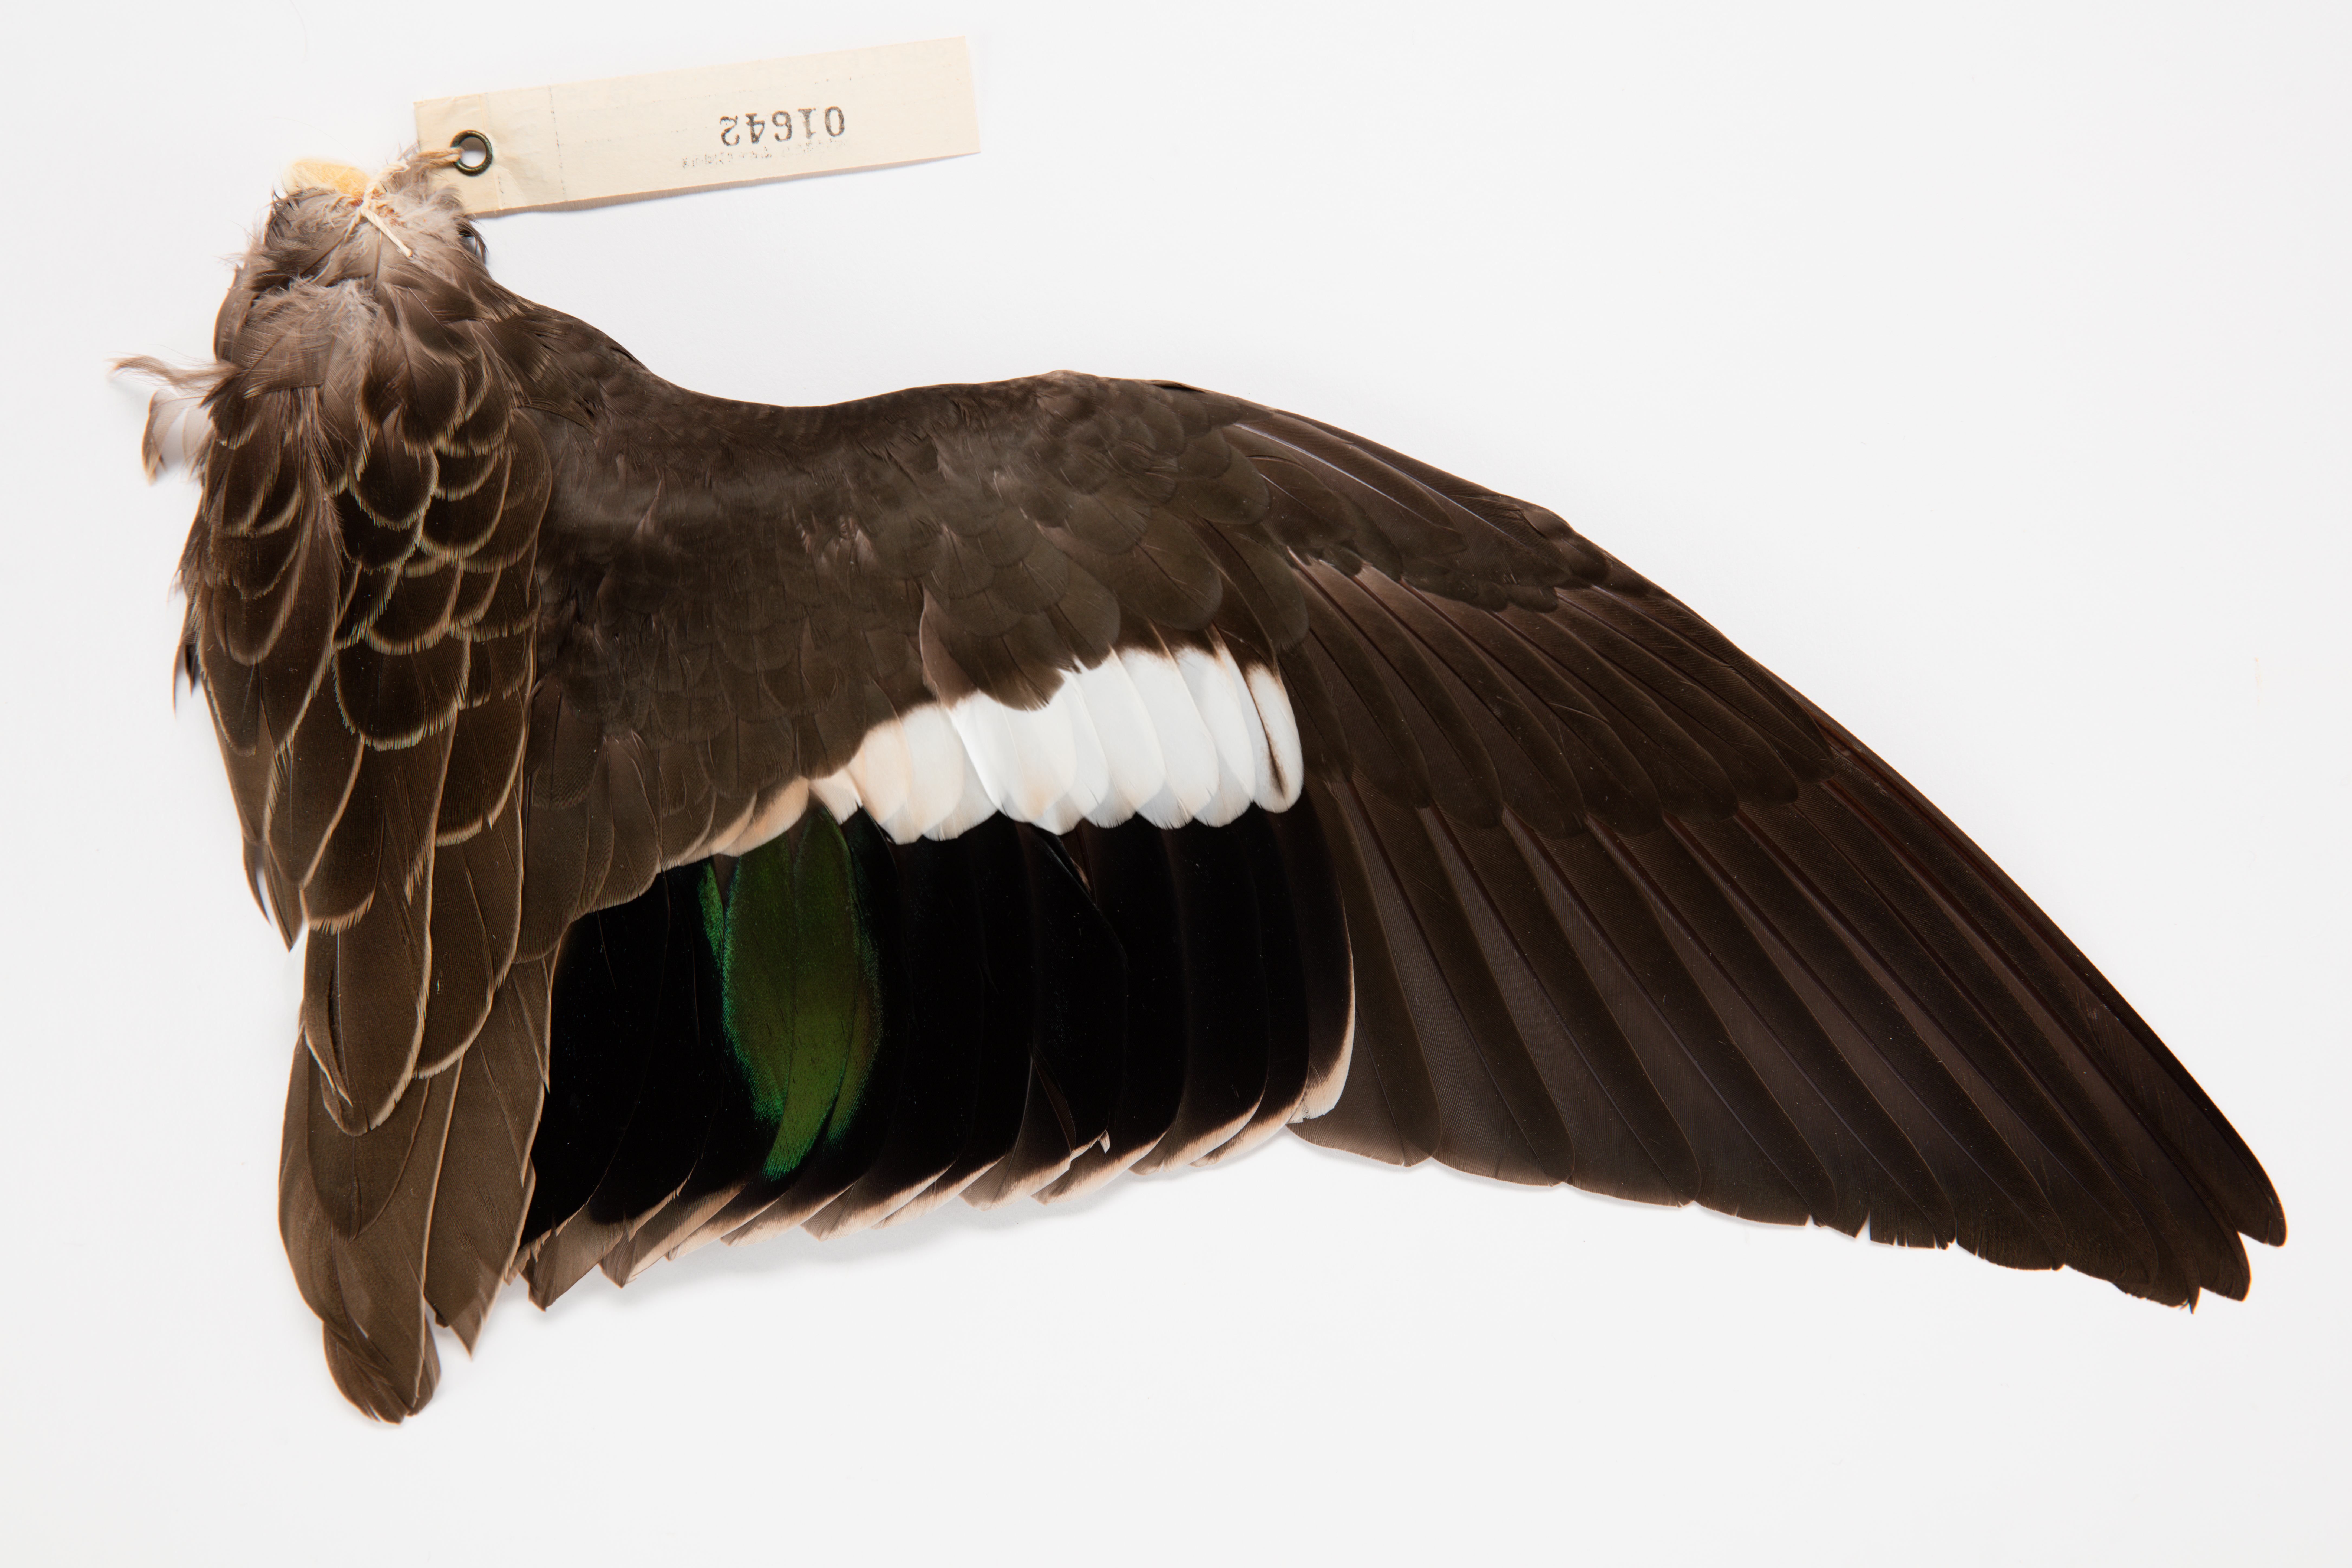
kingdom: Animalia
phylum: Chordata
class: Aves
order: Anseriformes
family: Anatidae
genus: Anas
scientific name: Anas gracilis
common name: Grey teal
